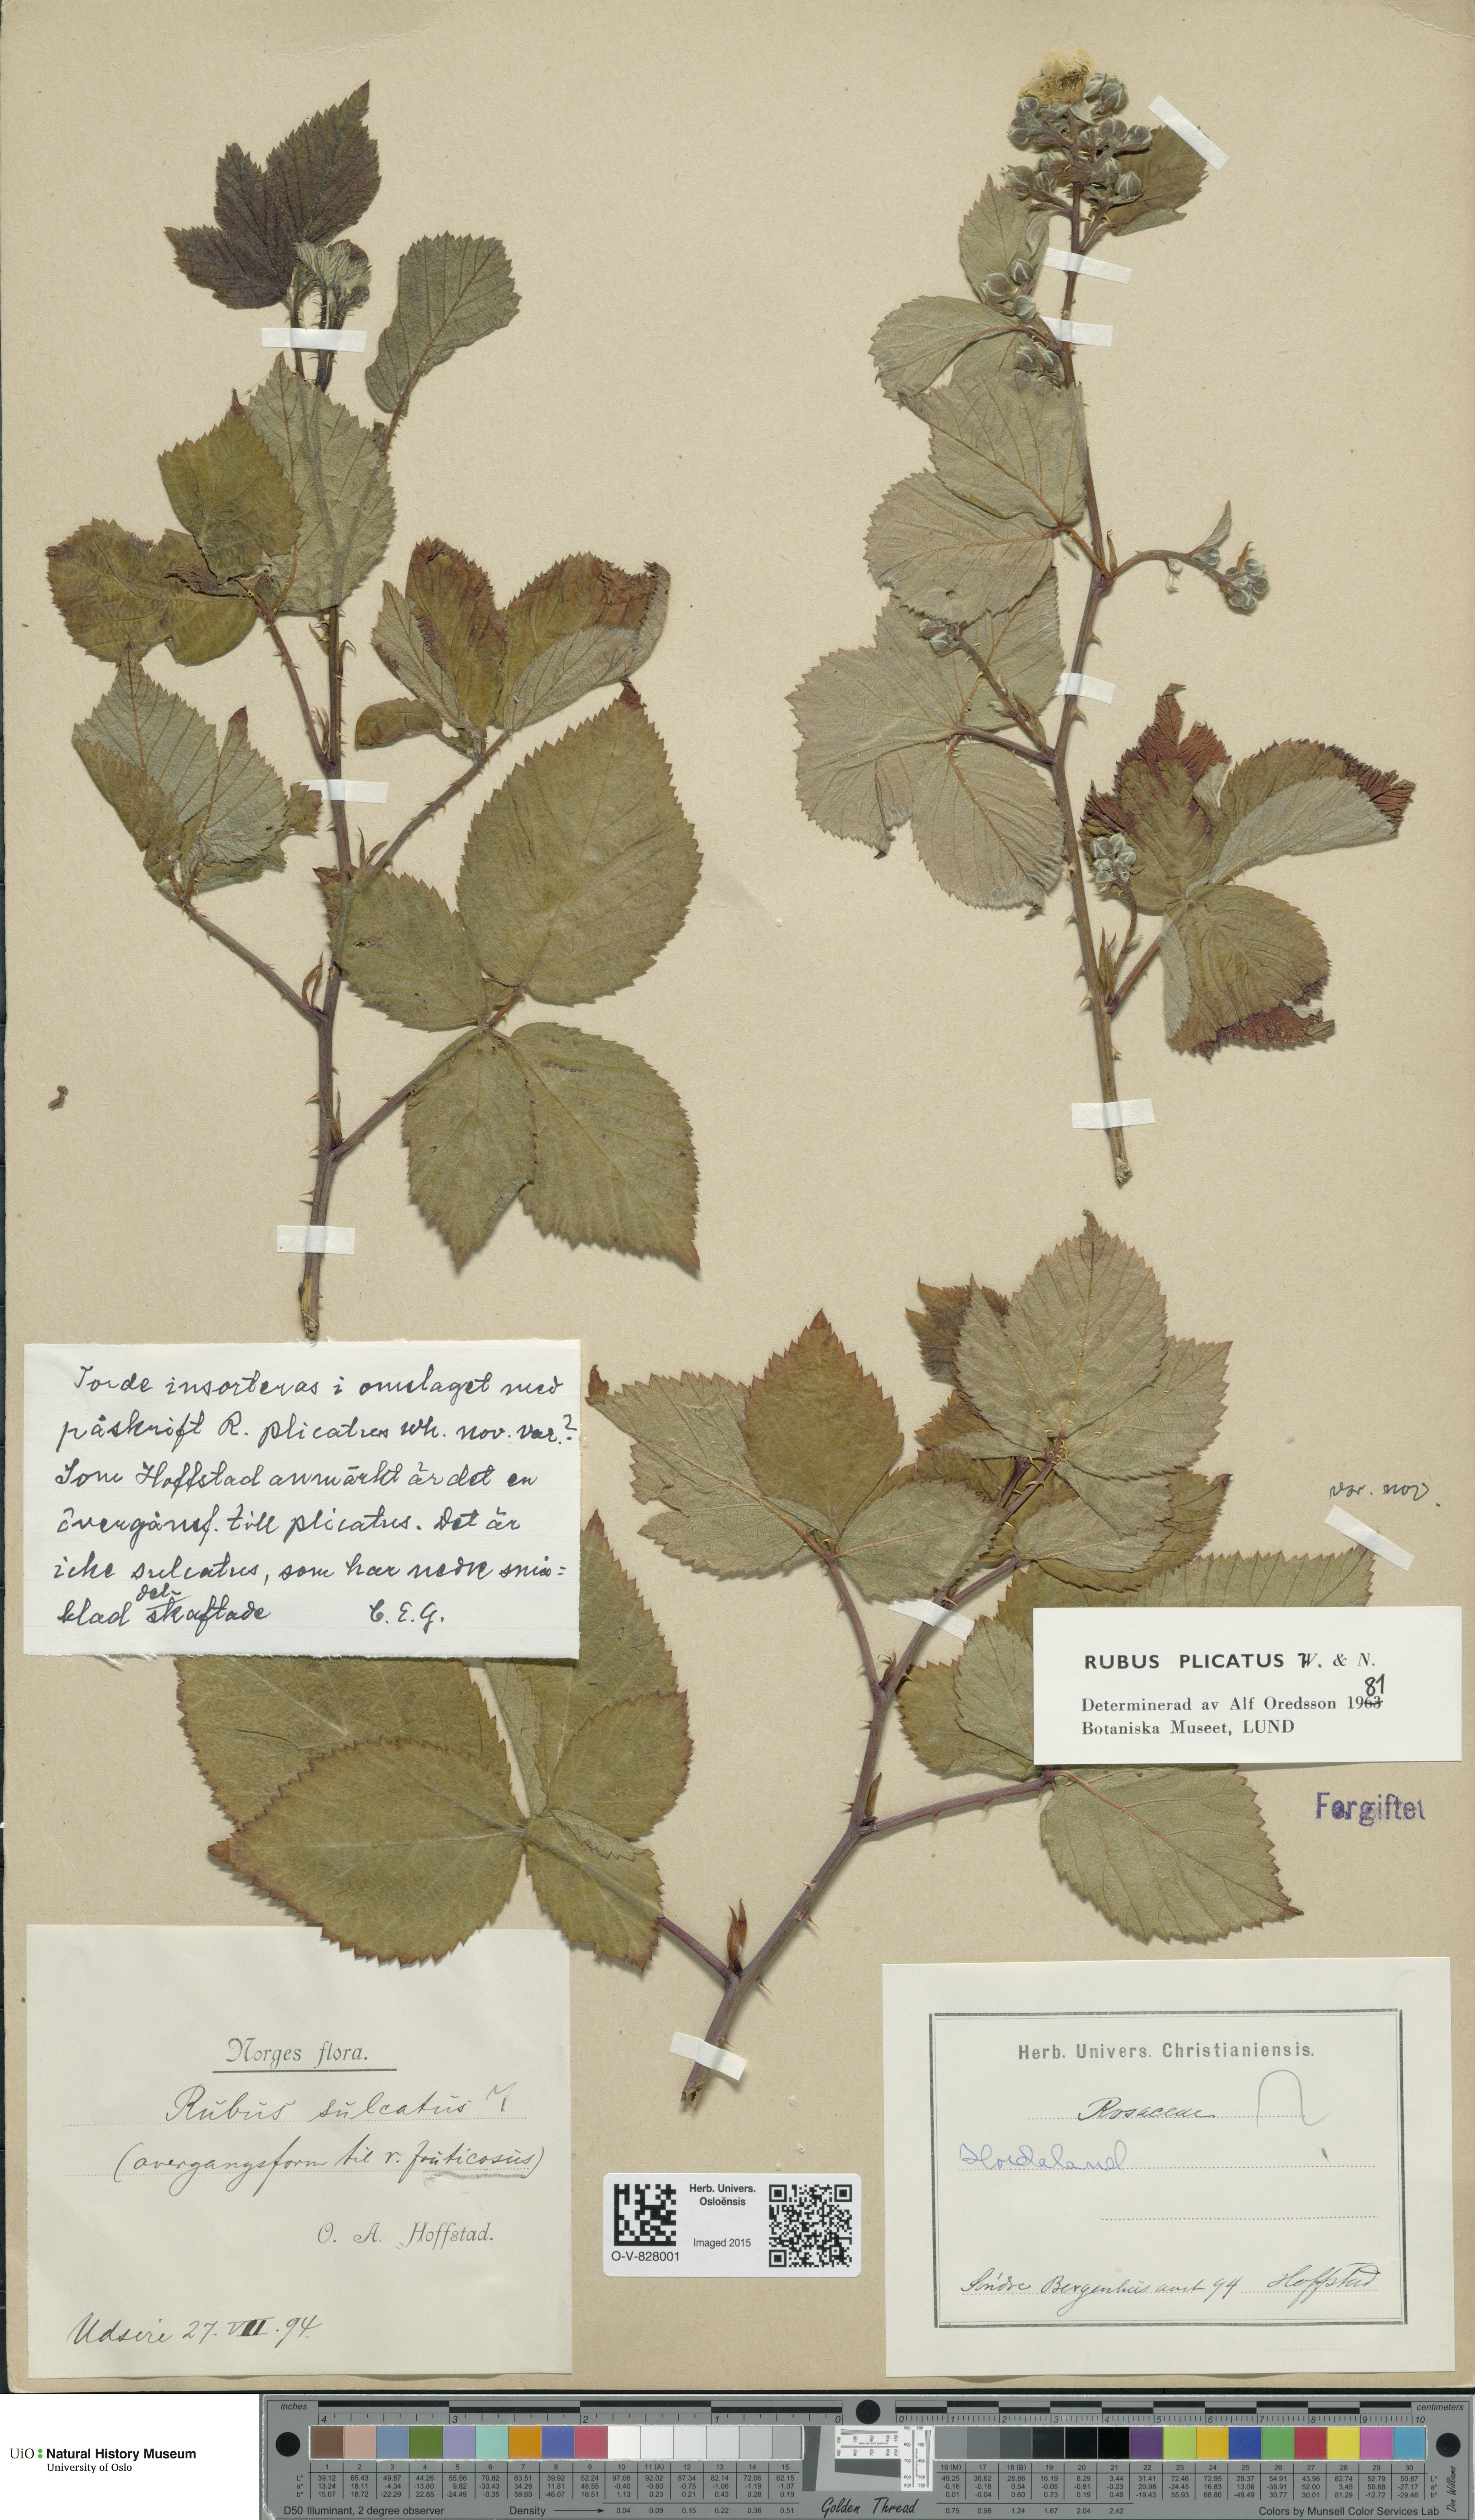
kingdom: Plantae
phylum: Tracheophyta
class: Magnoliopsida
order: Rosales
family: Rosaceae
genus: Rubus
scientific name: Rubus fruticosus
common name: Blackberry, bramble
